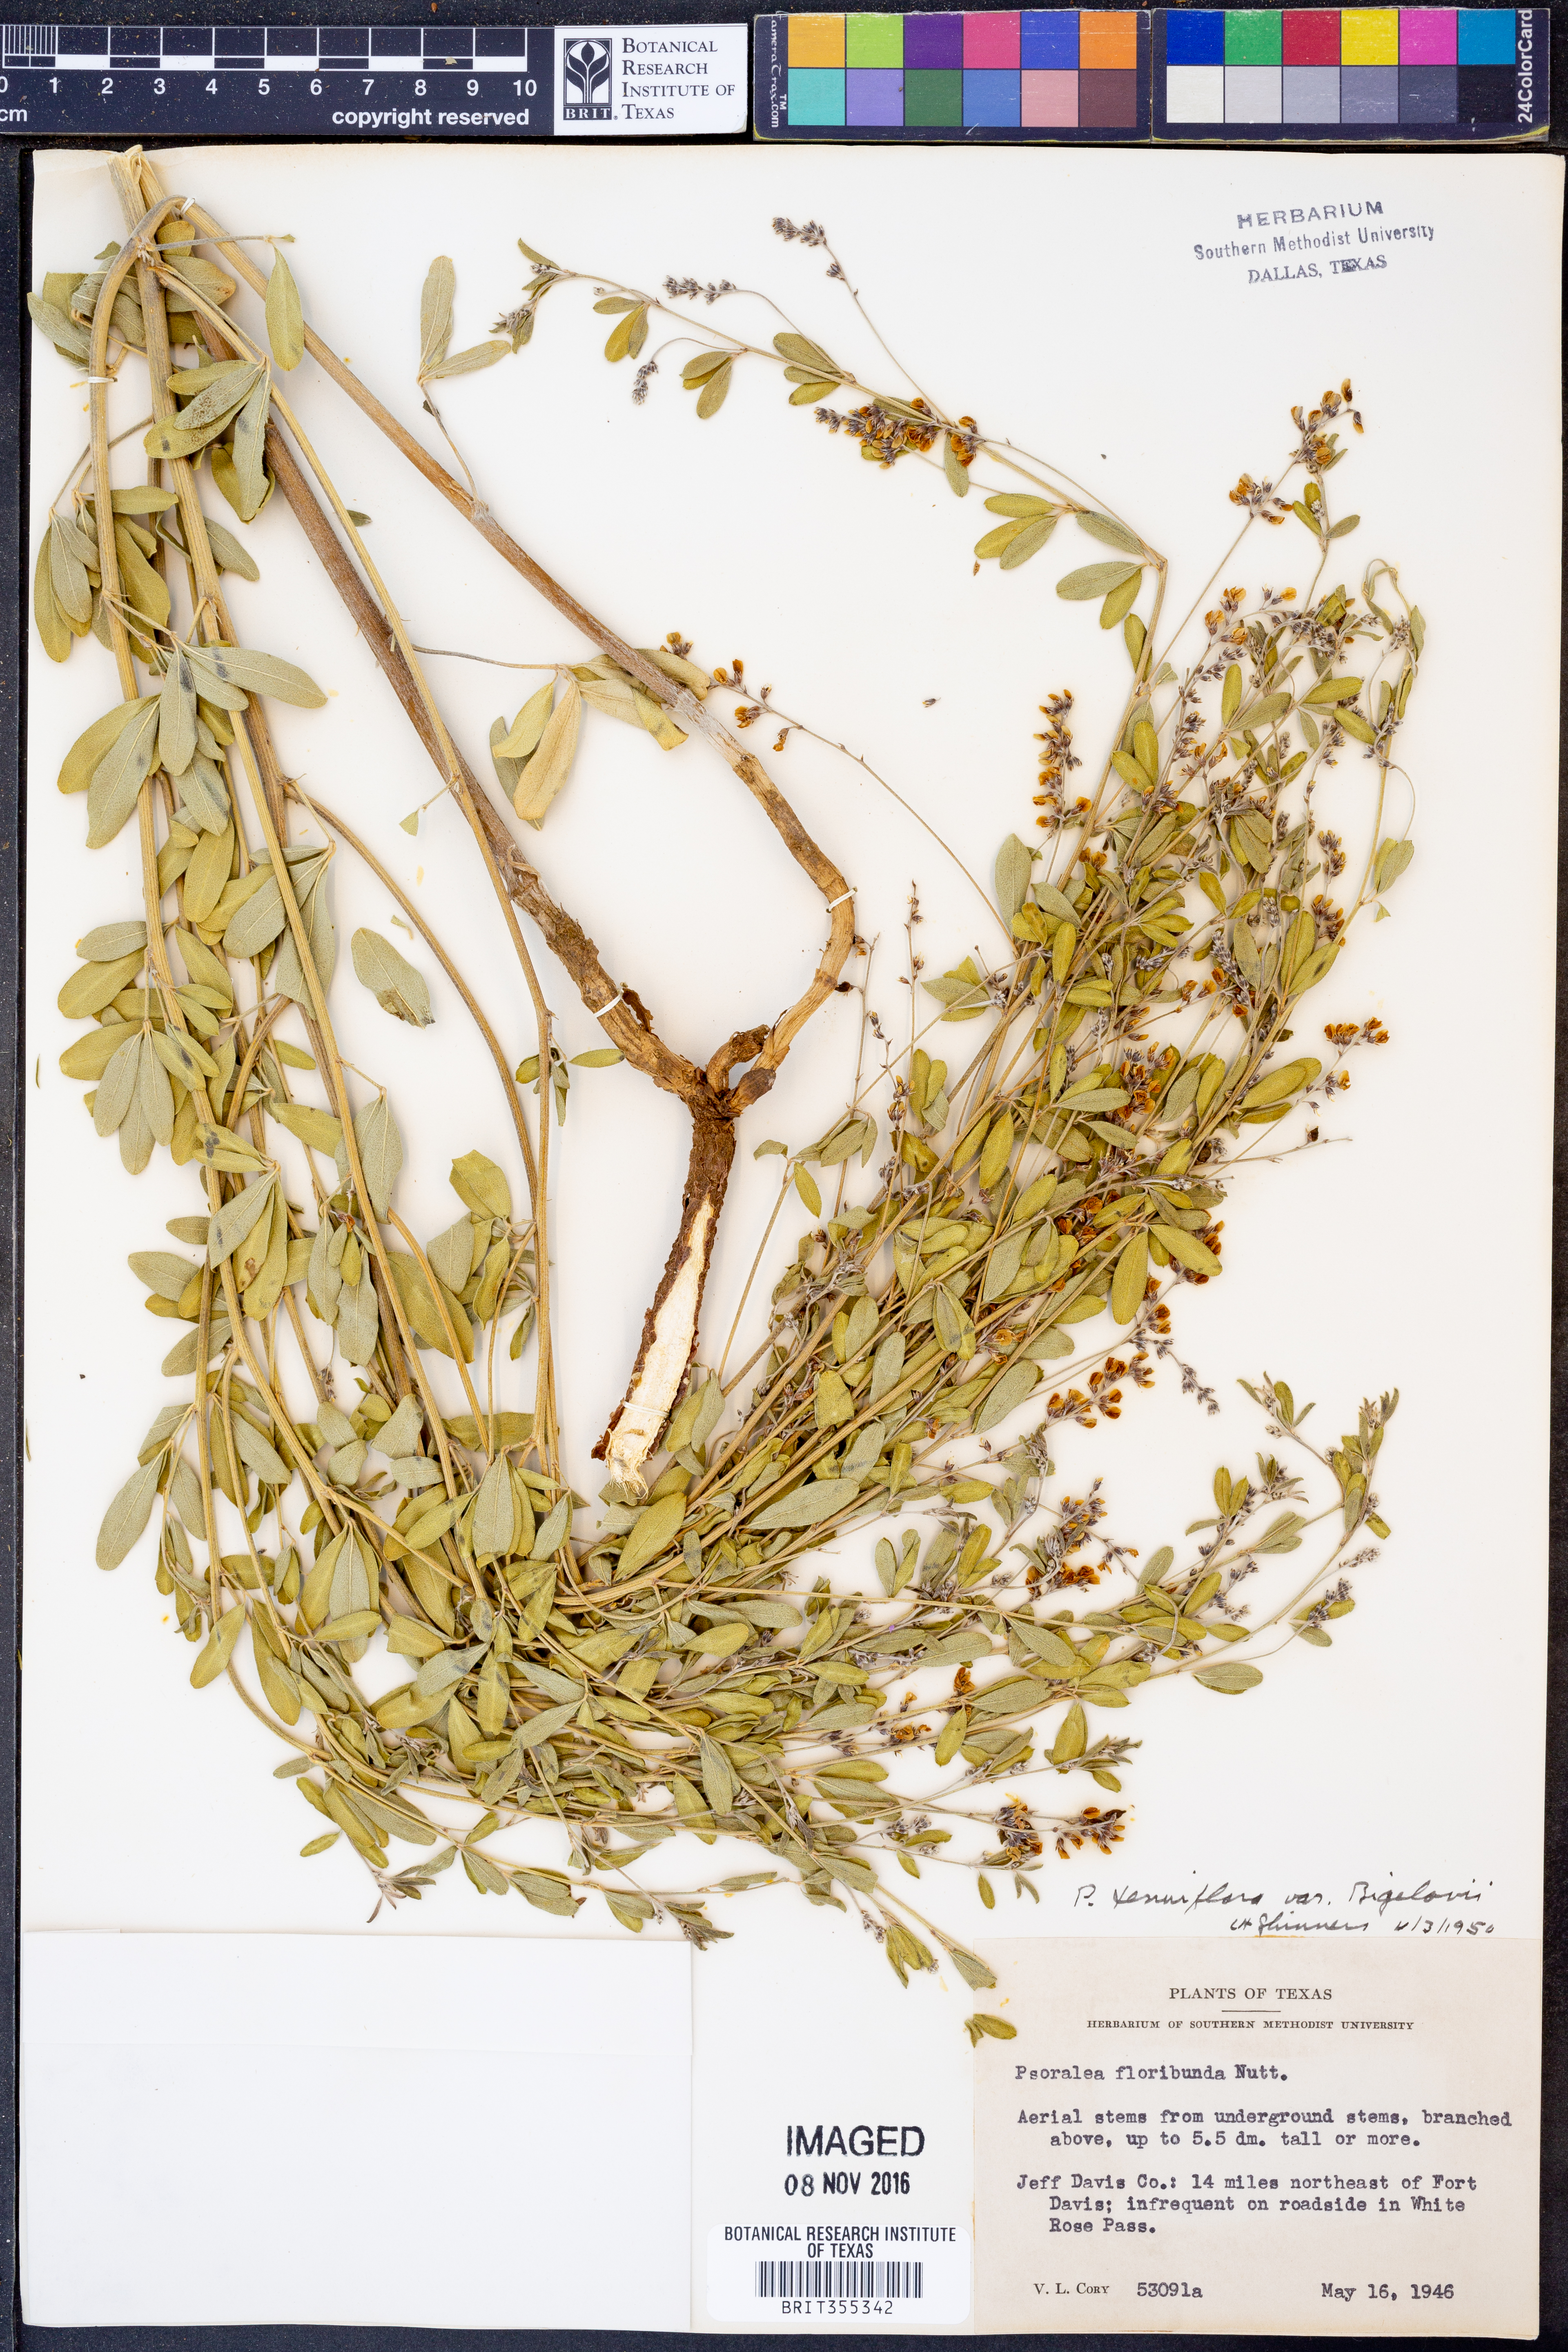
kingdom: Plantae
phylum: Tracheophyta
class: Magnoliopsida
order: Fabales
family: Fabaceae
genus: Pediomelum
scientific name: Pediomelum tenuiflorum
